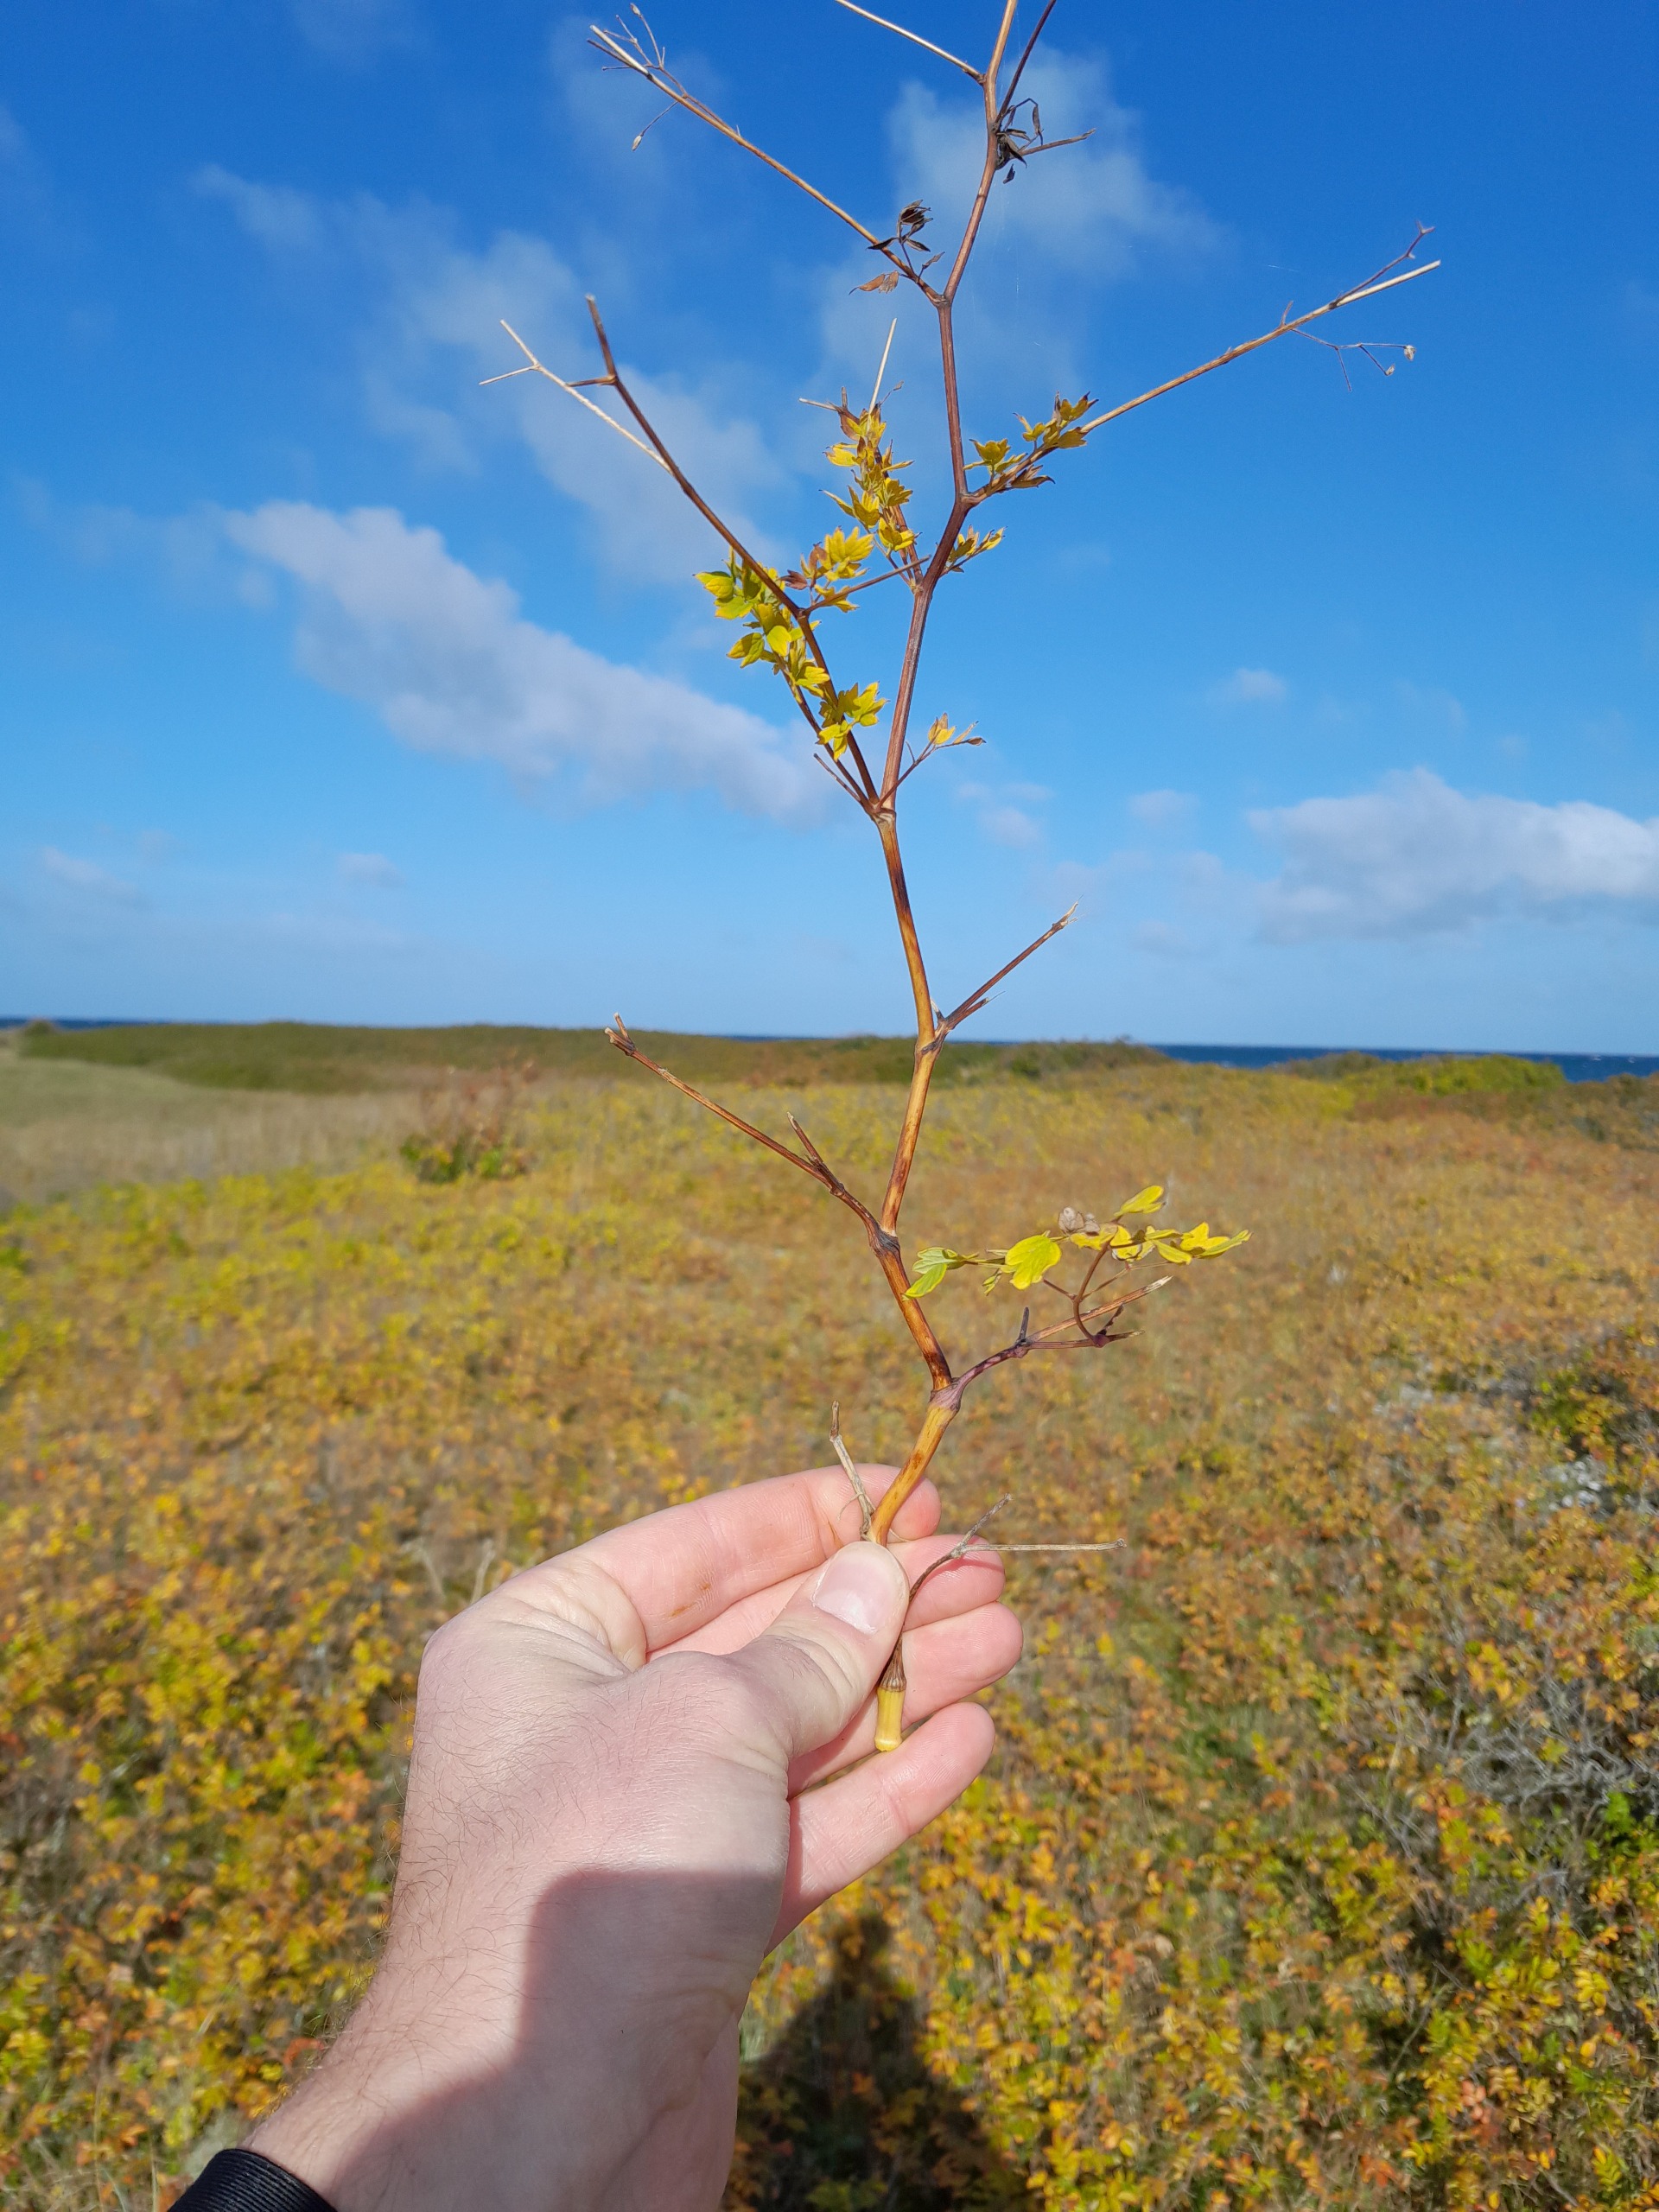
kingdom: Plantae
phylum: Tracheophyta
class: Magnoliopsida
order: Ranunculales
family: Ranunculaceae
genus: Thalictrum
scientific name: Thalictrum minus
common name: Sand-frøstjerne
